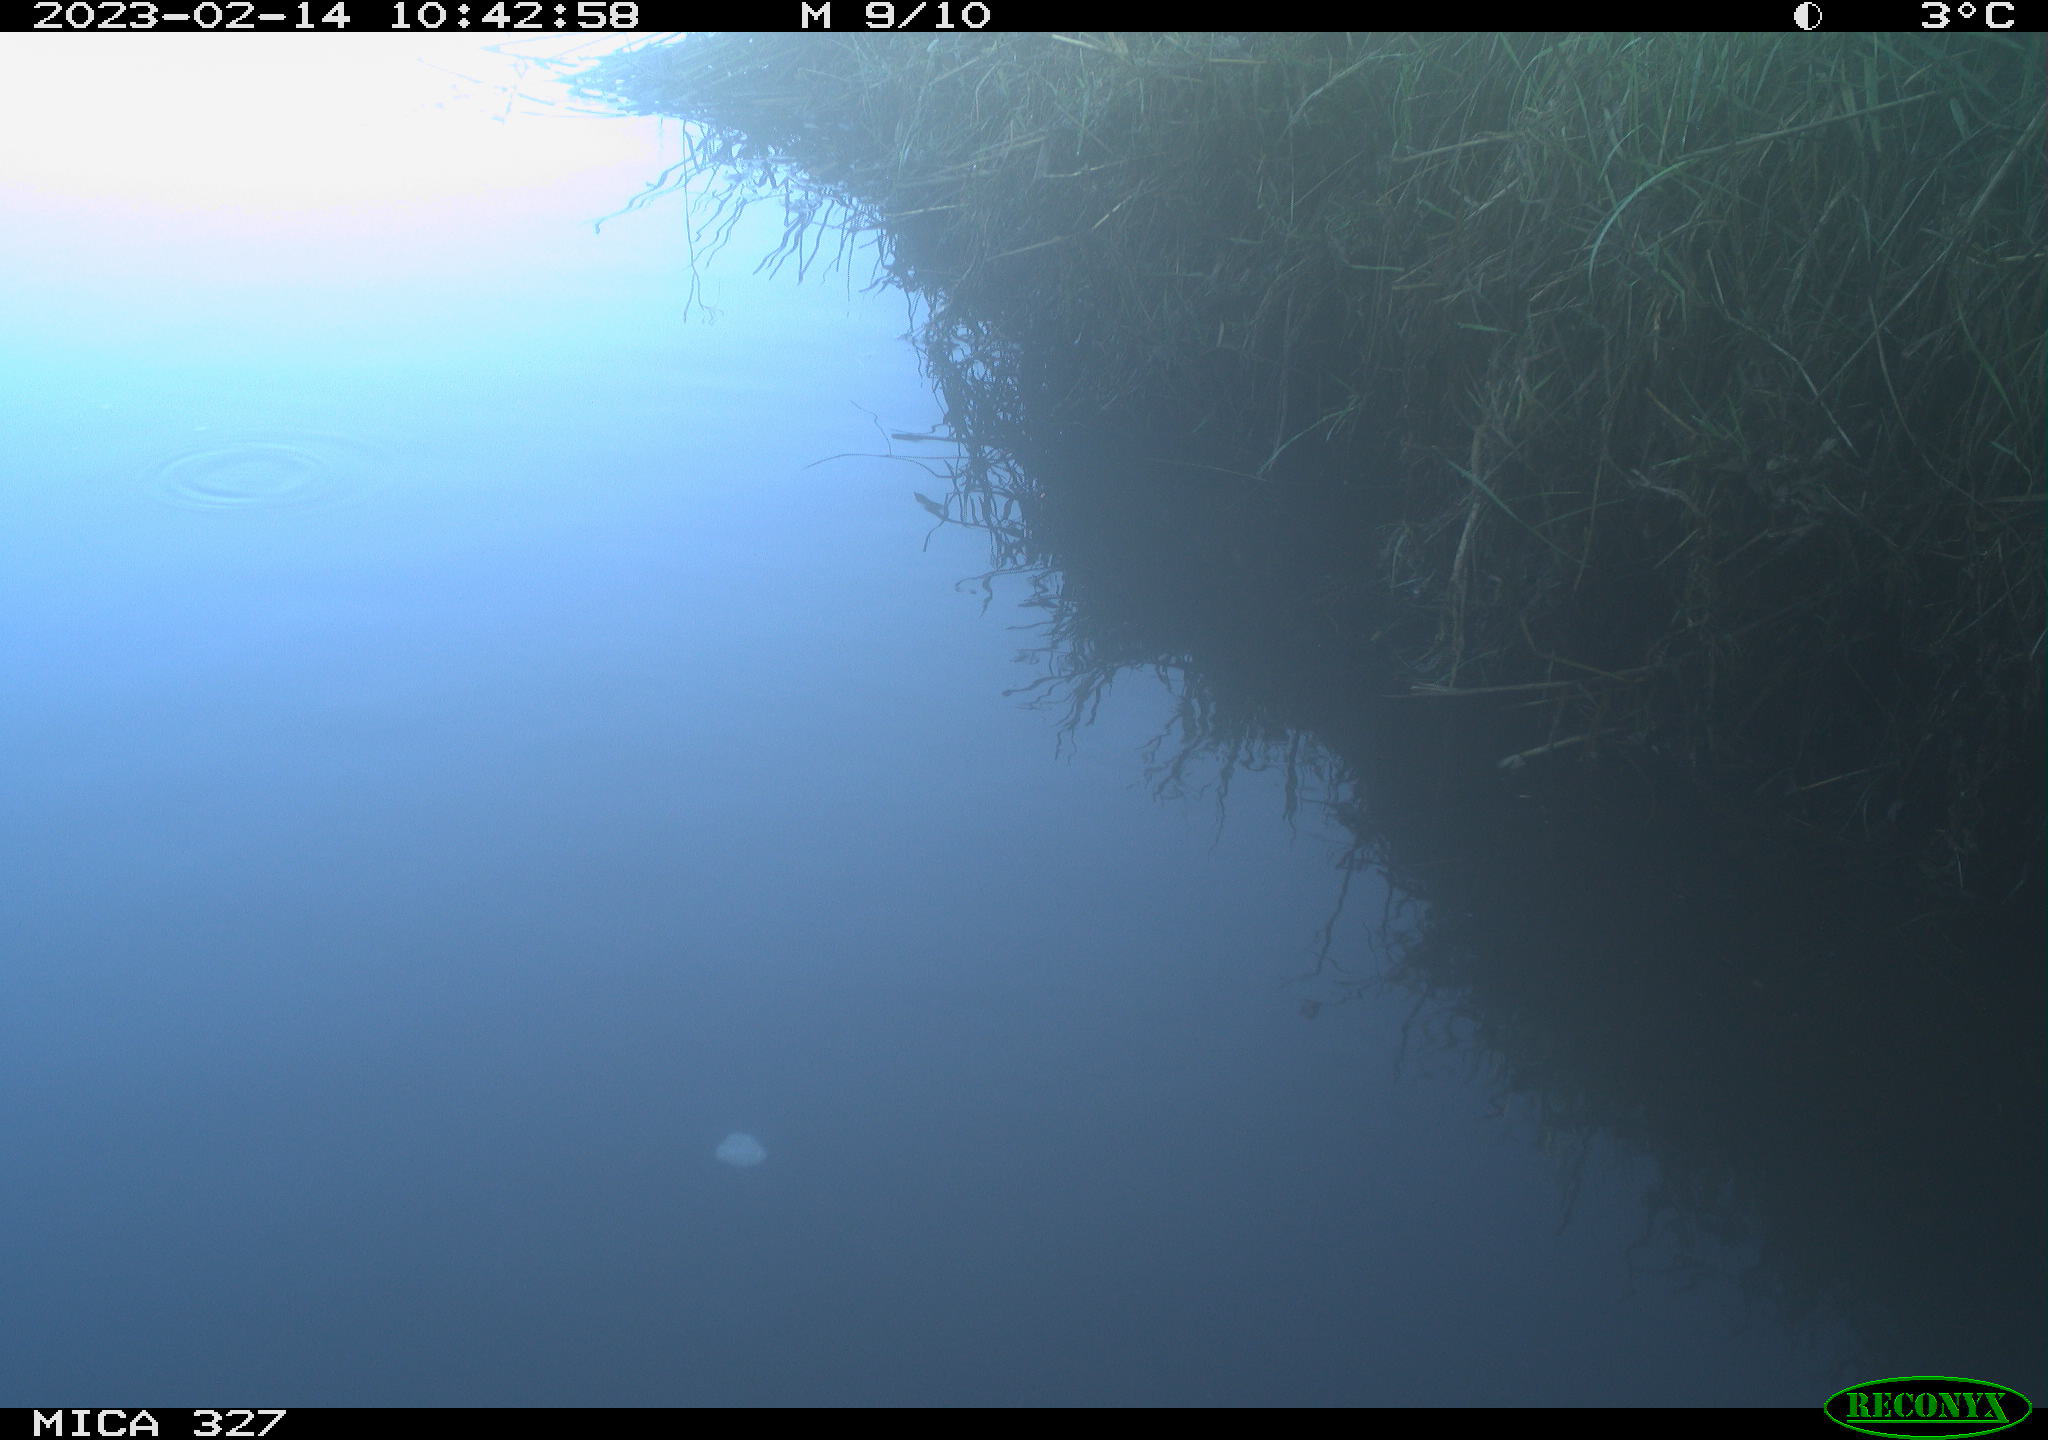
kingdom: Animalia
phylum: Chordata
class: Aves
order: Gruiformes
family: Rallidae
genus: Gallinula
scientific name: Gallinula chloropus
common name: Common moorhen
